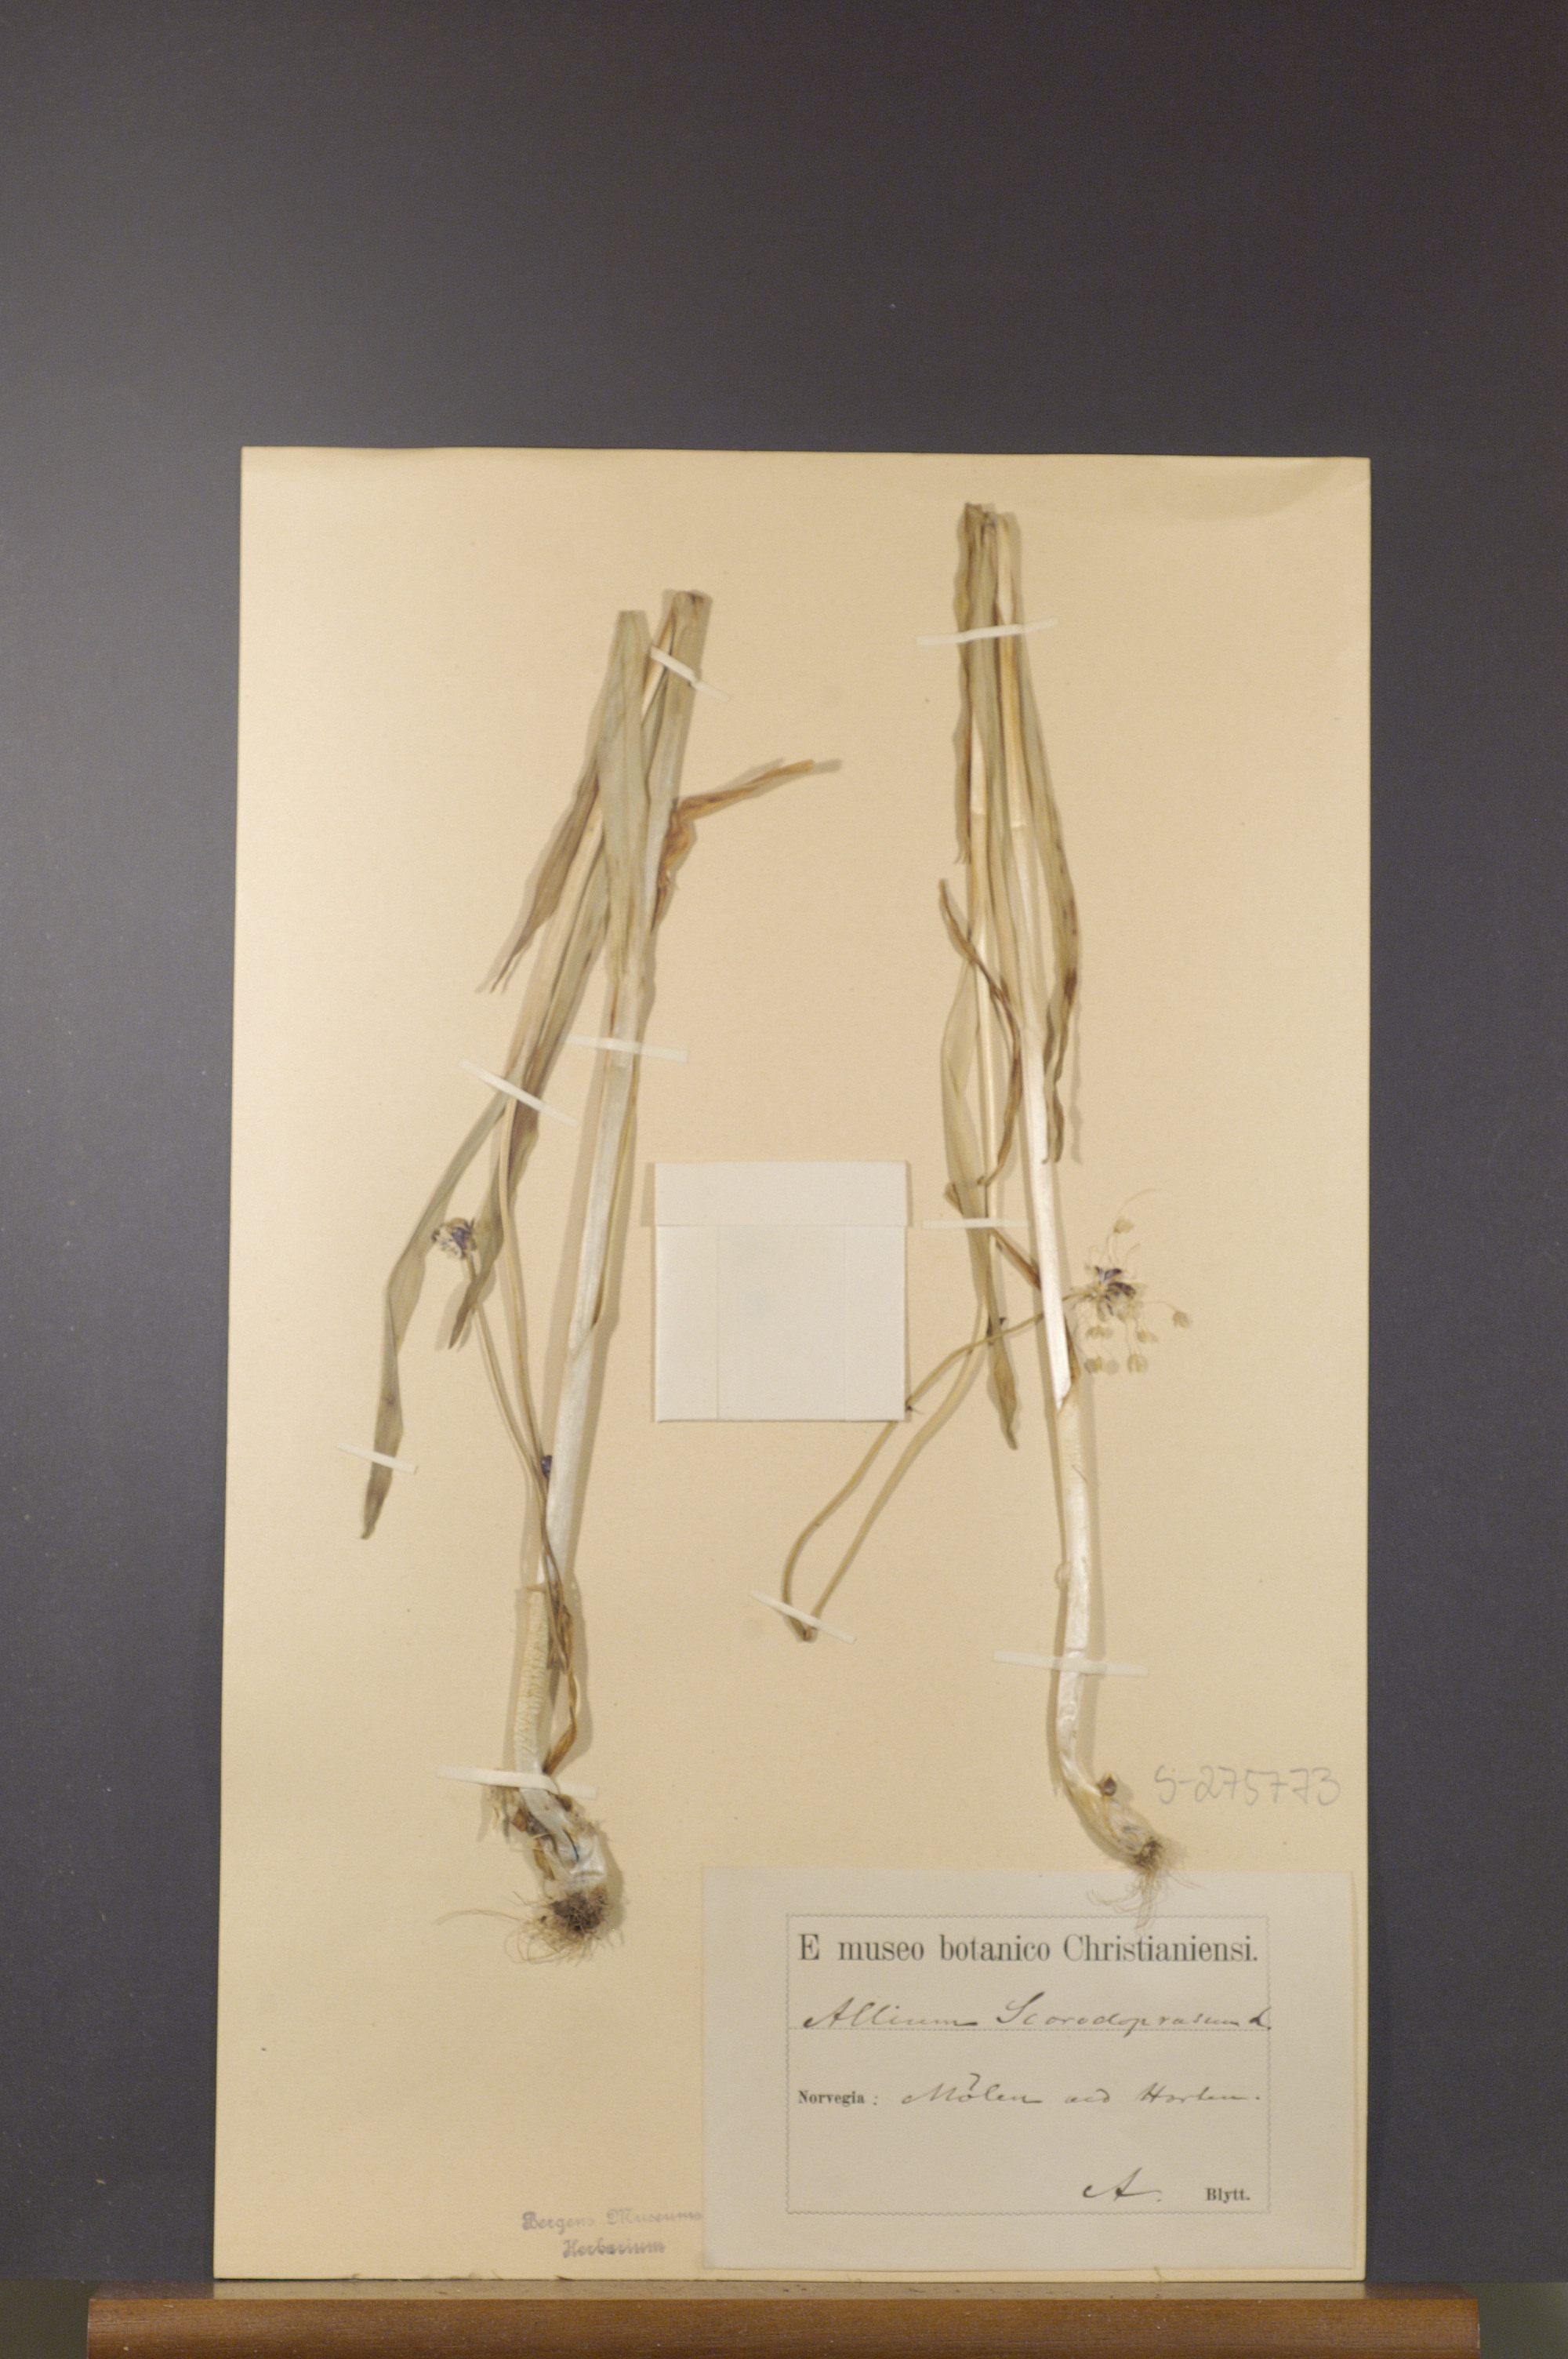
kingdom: Plantae
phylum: Tracheophyta
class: Liliopsida
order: Asparagales
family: Amaryllidaceae
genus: Allium
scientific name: Allium scorodoprasum
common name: Sand leek
